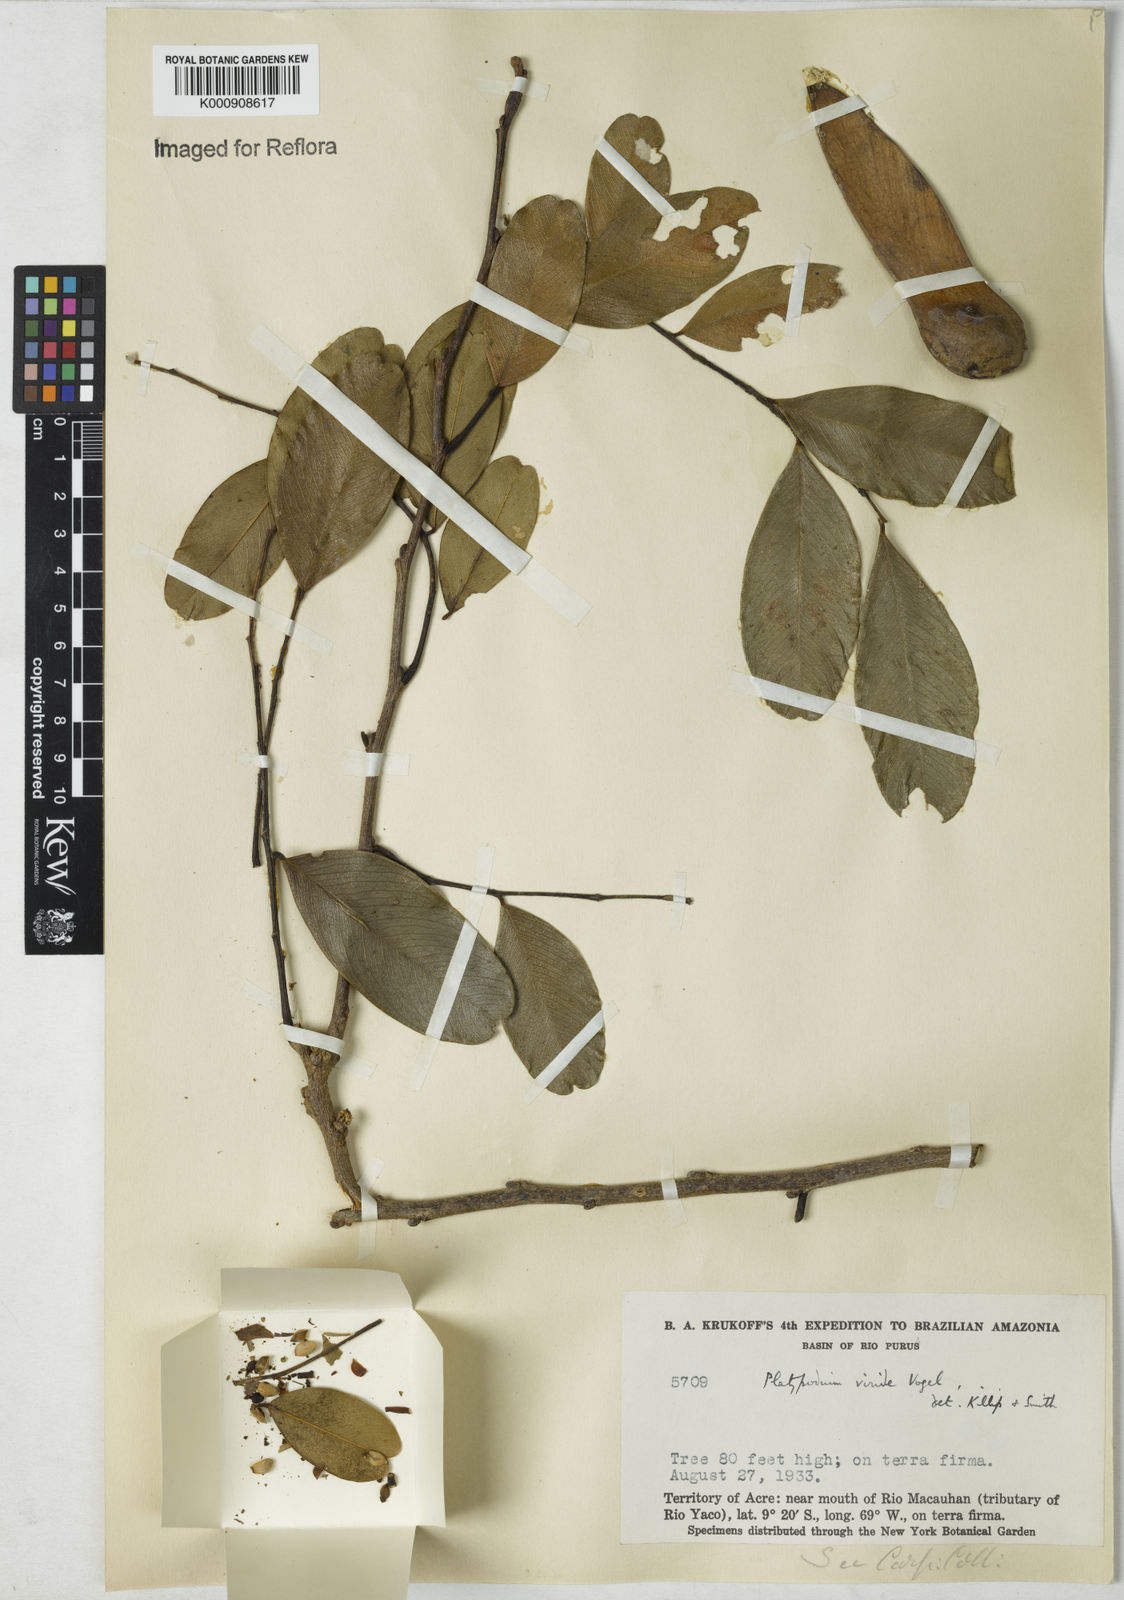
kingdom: Plantae
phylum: Tracheophyta
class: Magnoliopsida
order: Fabales
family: Fabaceae
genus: Platypodium
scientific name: Platypodium
